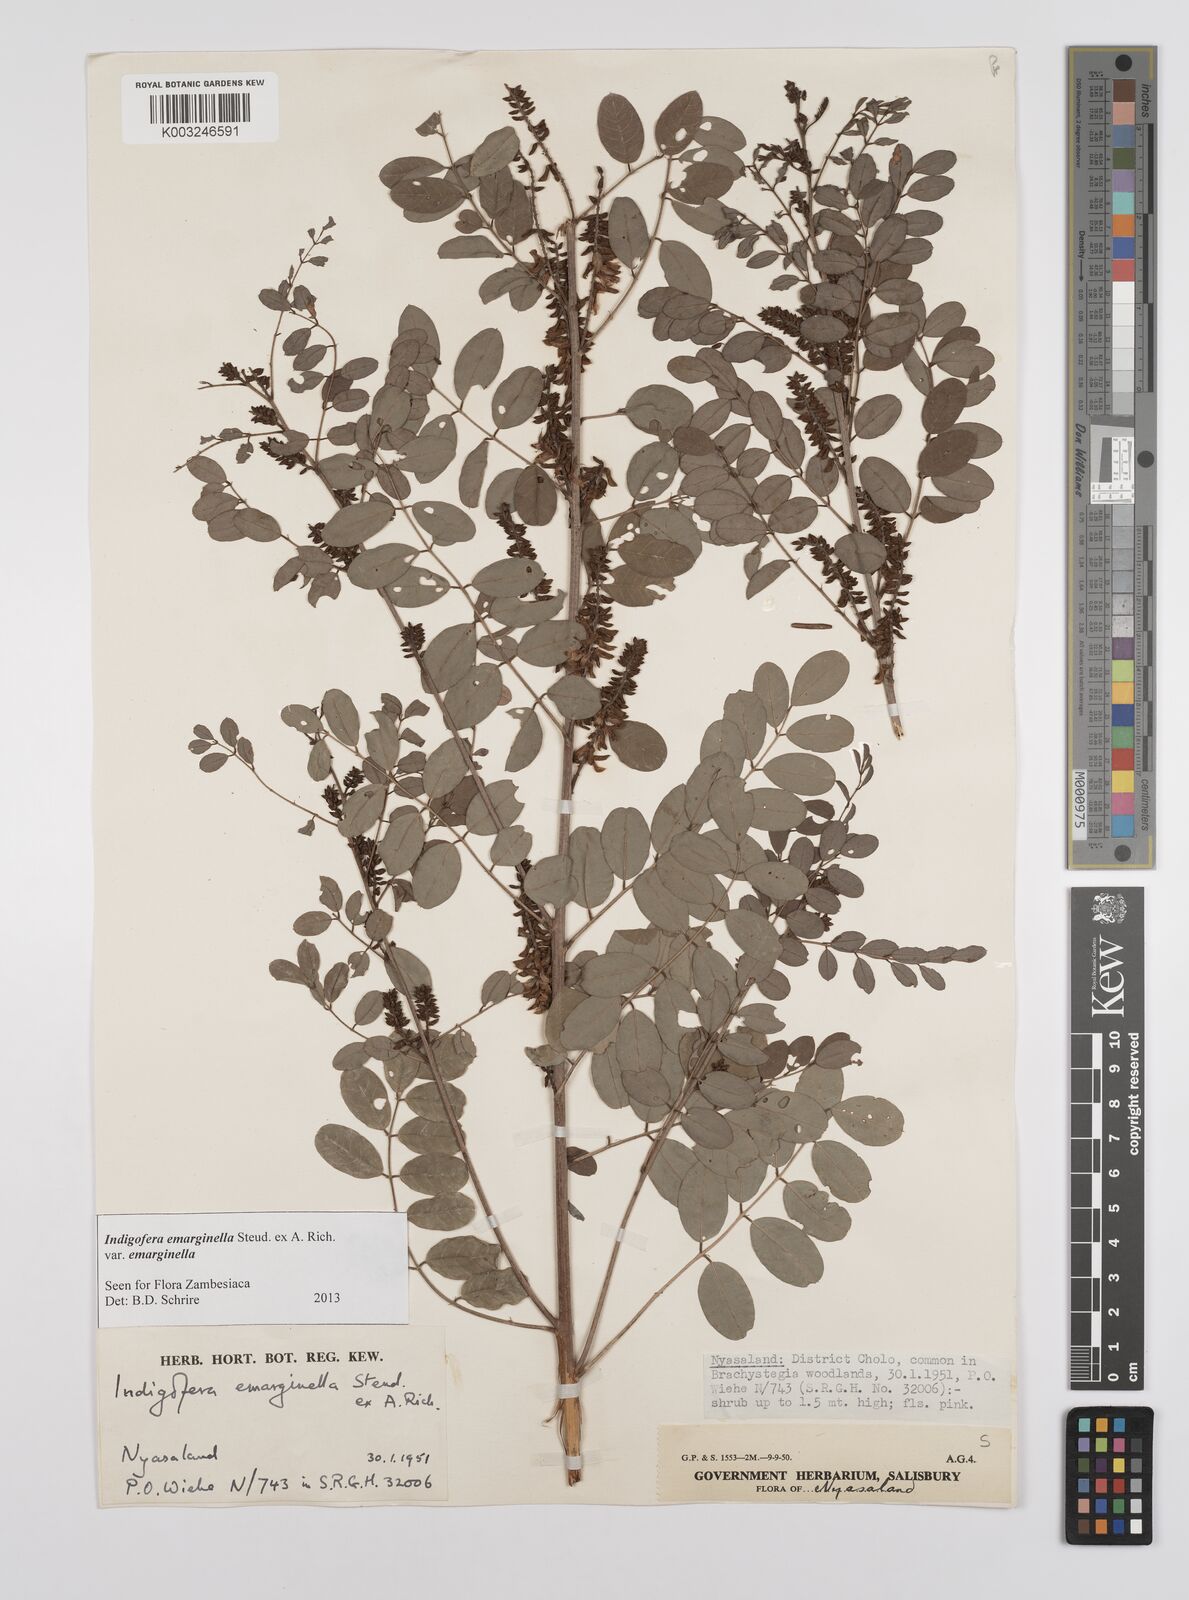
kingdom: Plantae
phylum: Tracheophyta
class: Magnoliopsida
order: Fabales
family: Fabaceae
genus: Indigofera
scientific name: Indigofera emarginella
